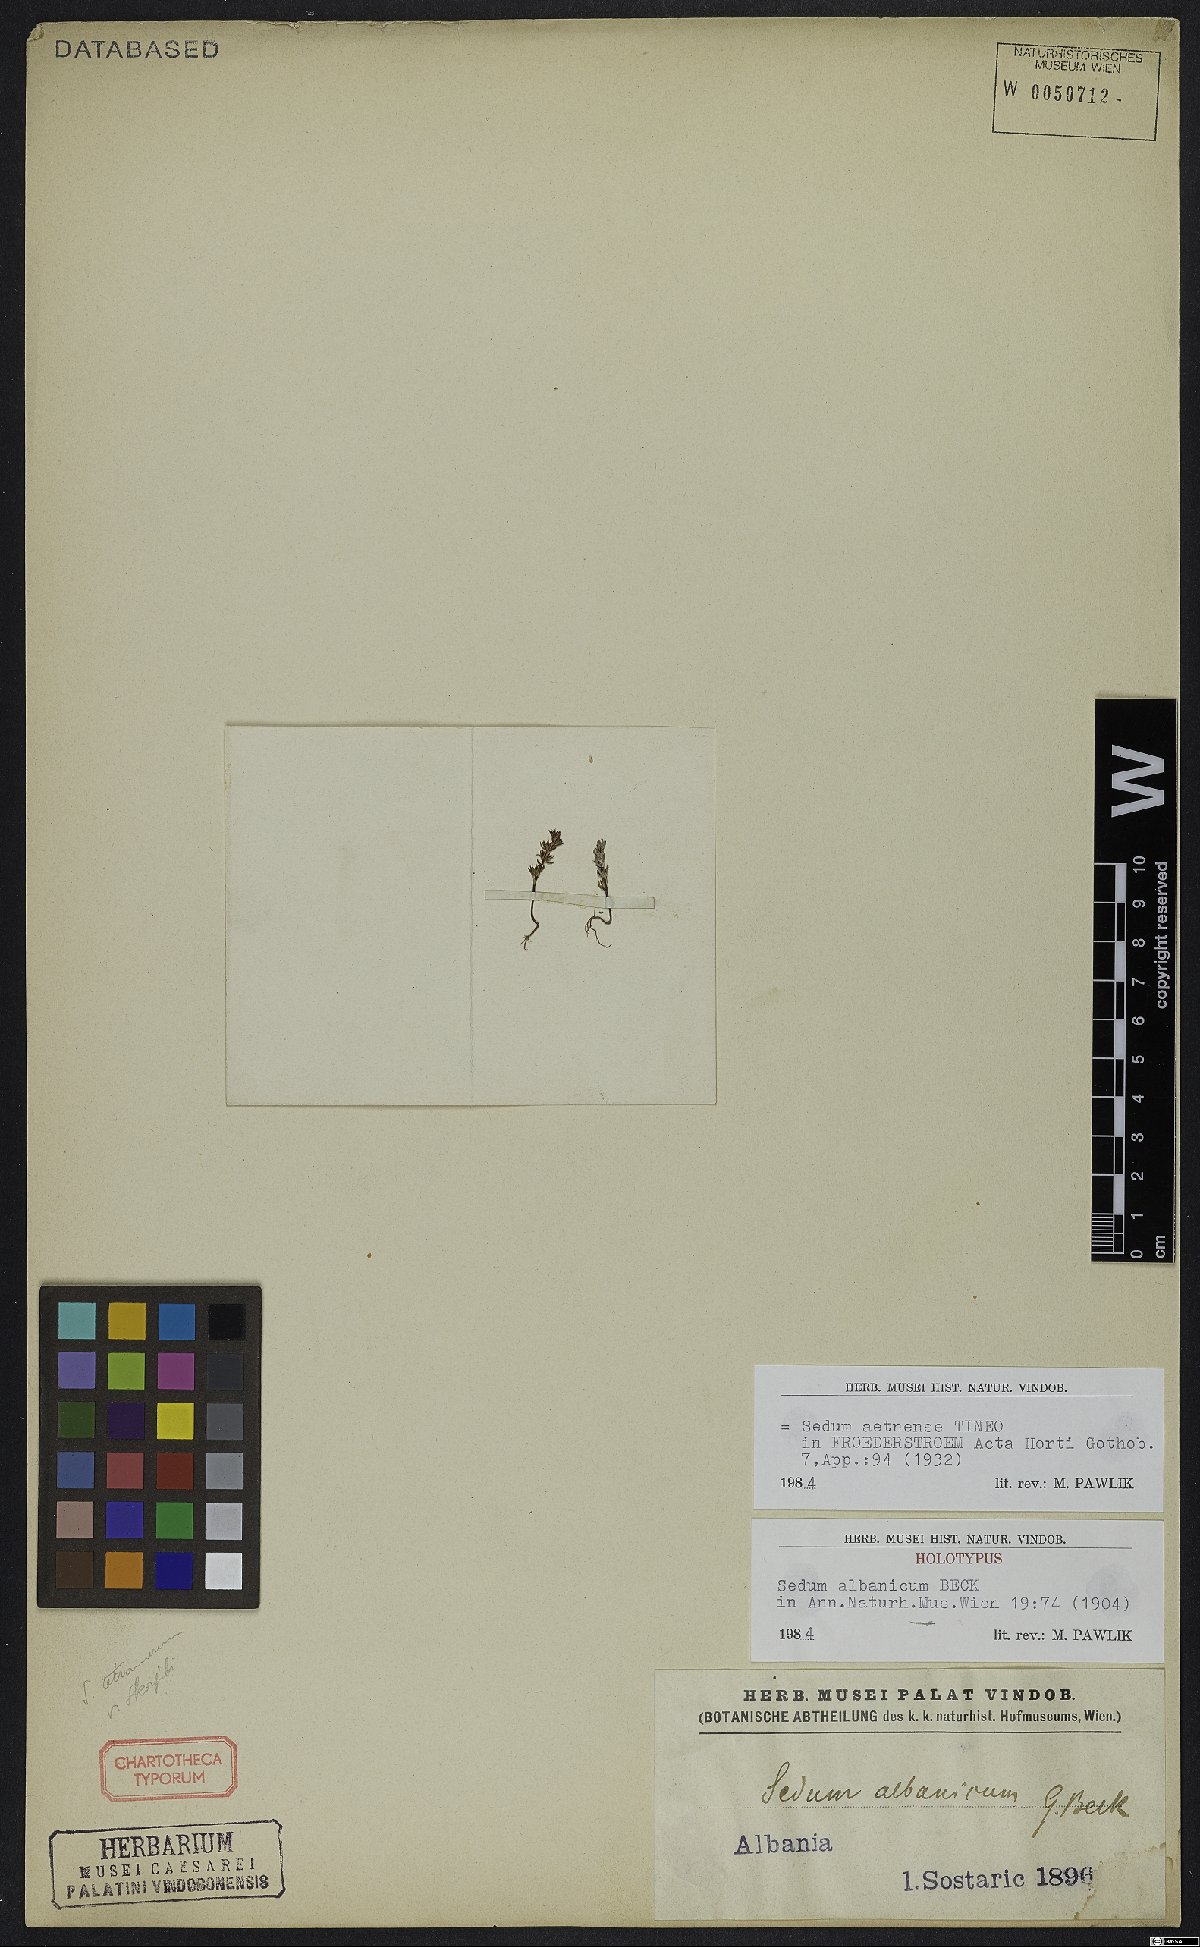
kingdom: Plantae
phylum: Tracheophyta
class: Magnoliopsida
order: Saxifragales
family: Crassulaceae
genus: Sedum
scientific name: Sedum aetnense
